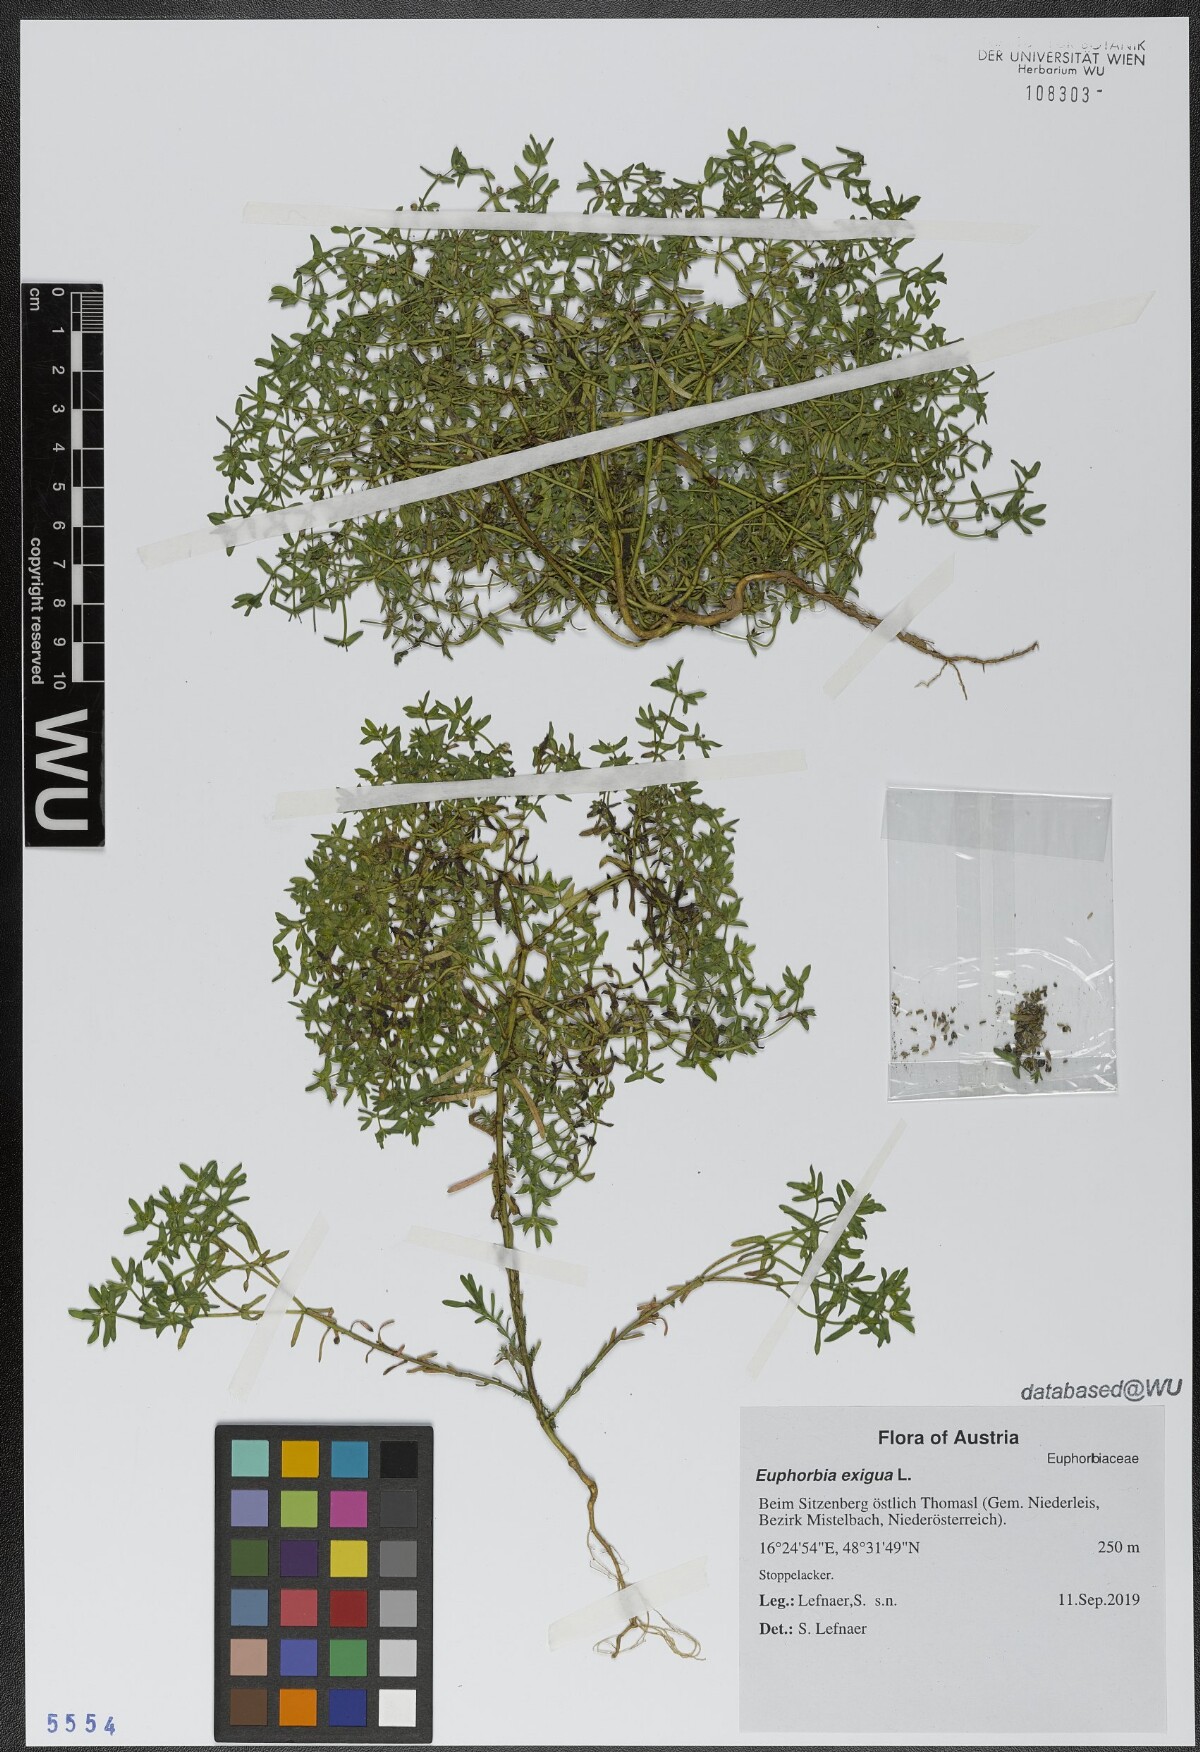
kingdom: Plantae
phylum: Tracheophyta
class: Magnoliopsida
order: Malpighiales
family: Euphorbiaceae
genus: Euphorbia
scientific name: Euphorbia exigua
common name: Dwarf spurge
